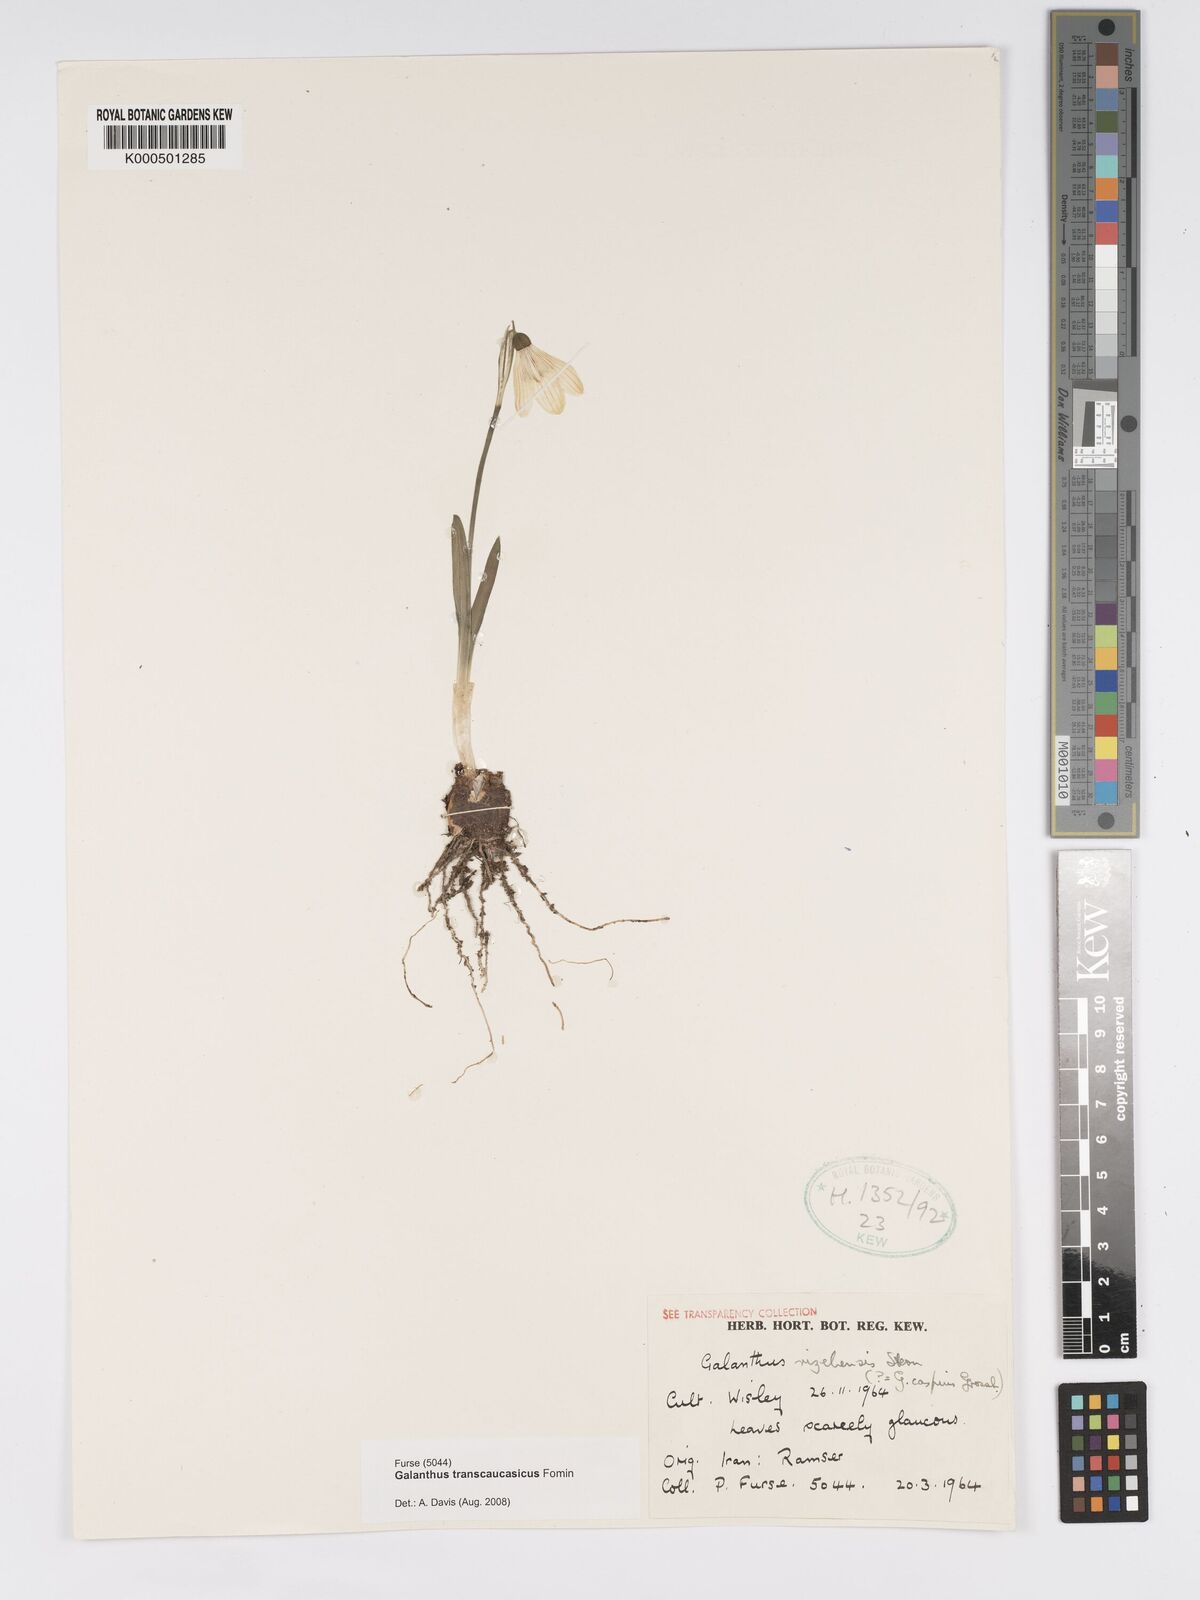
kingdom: Plantae
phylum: Tracheophyta
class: Liliopsida
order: Asparagales
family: Amaryllidaceae
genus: Galanthus
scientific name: Galanthus transcaucasicus
